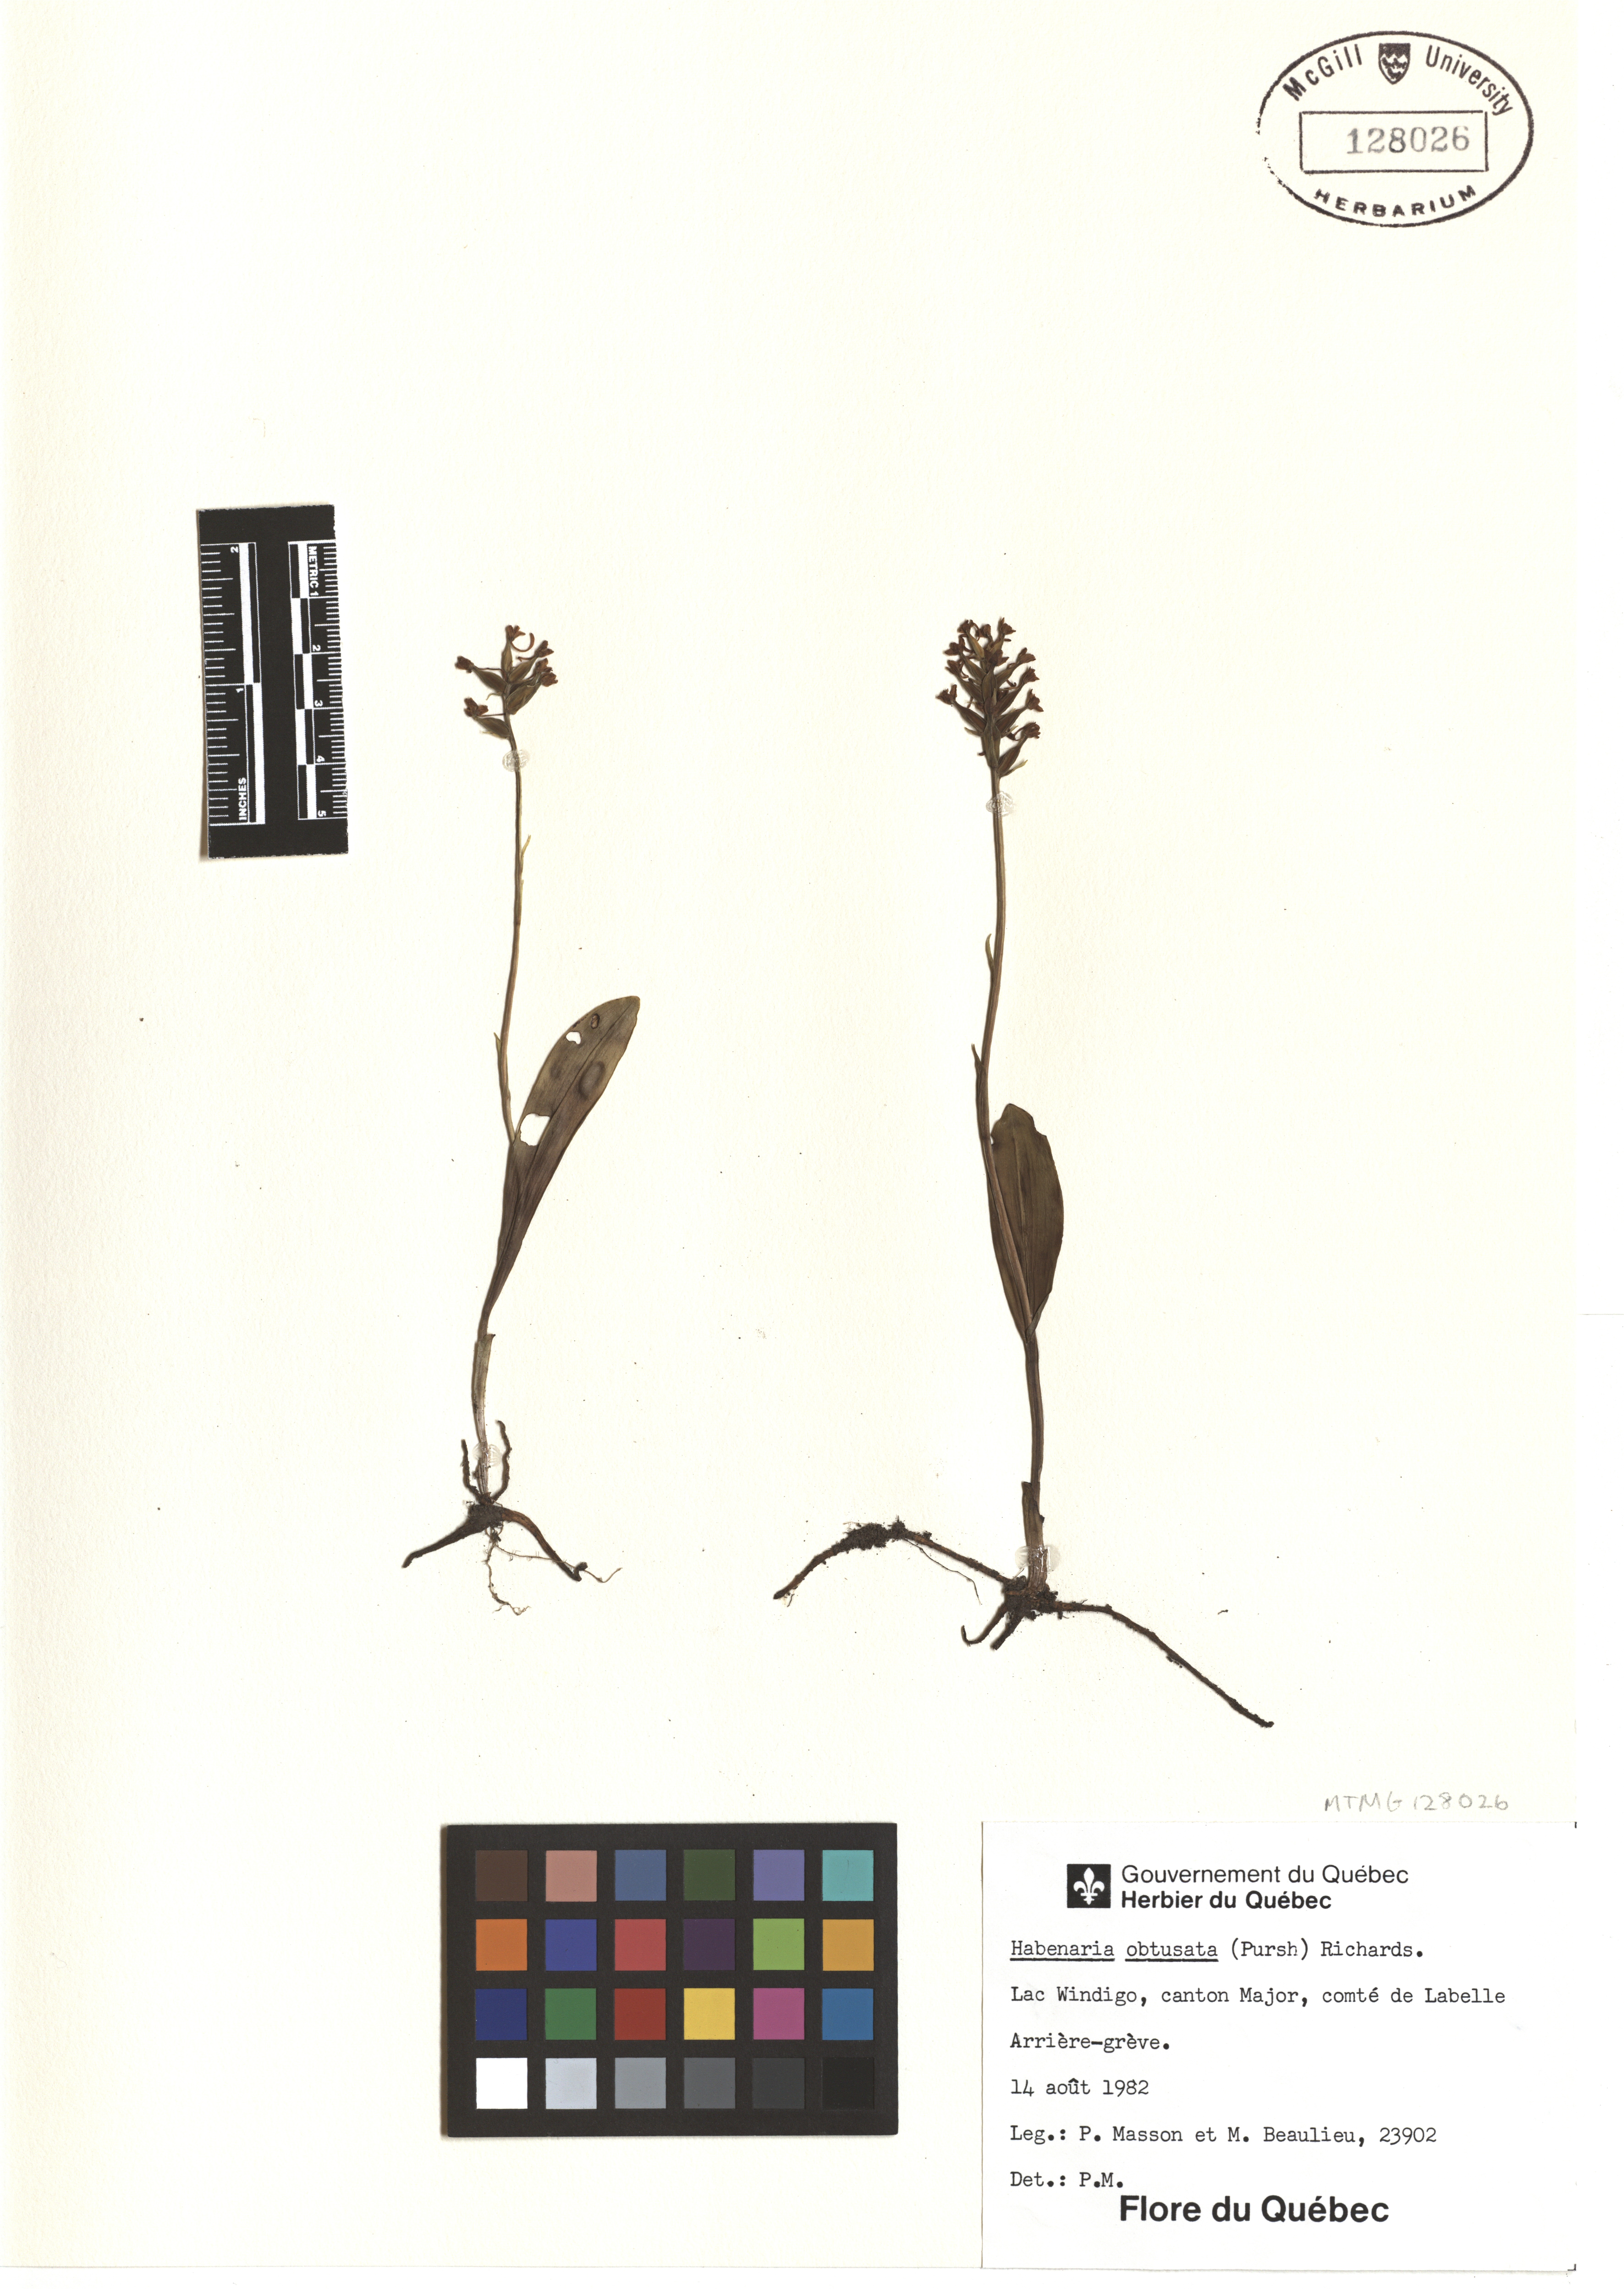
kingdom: Plantae
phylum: Tracheophyta
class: Liliopsida
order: Asparagales
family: Orchidaceae
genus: Platanthera
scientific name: Platanthera obtusata
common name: Blunt bog orchid
